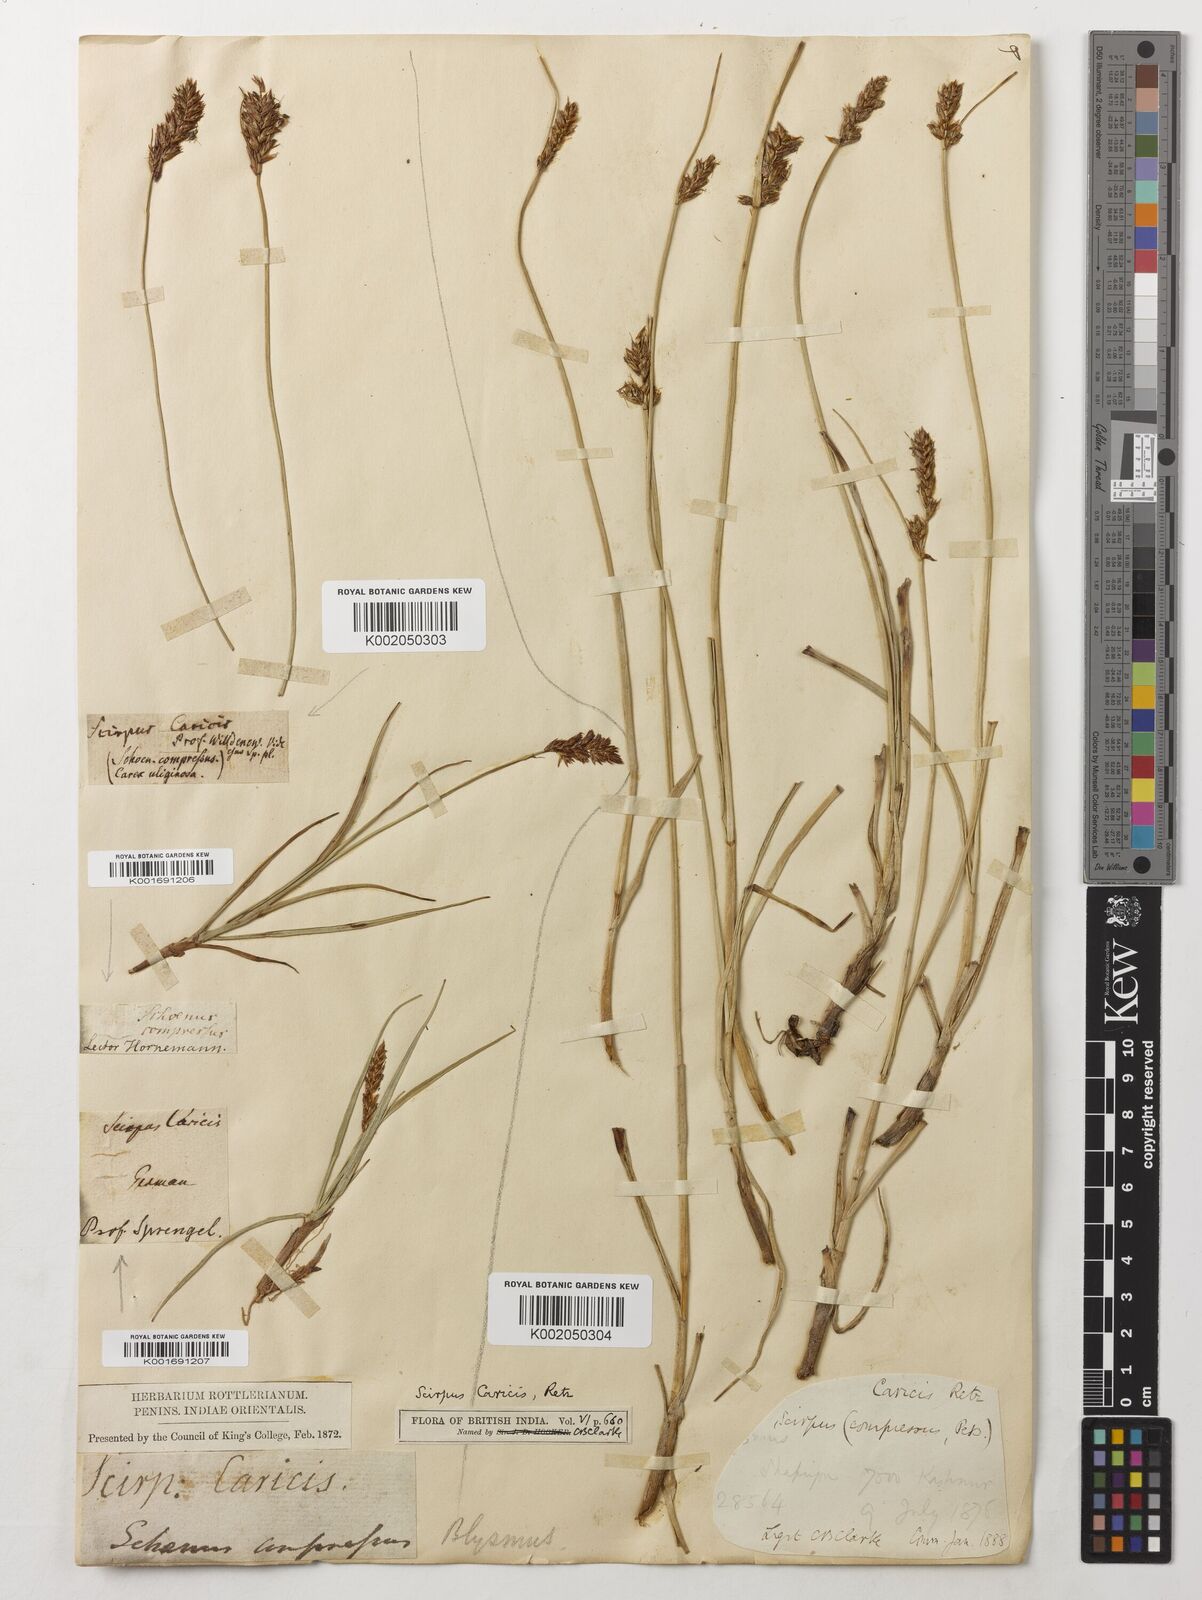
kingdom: Plantae
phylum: Tracheophyta
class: Liliopsida
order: Poales
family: Cyperaceae
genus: Blysmus
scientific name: Blysmus compressus
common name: Flat-sedge
